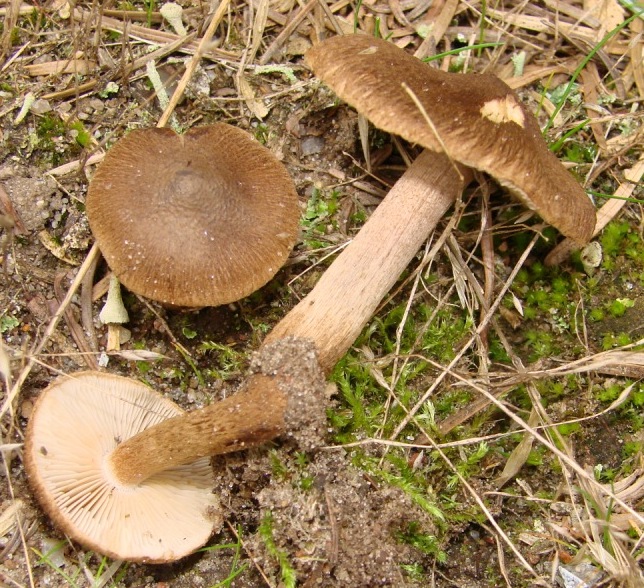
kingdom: Fungi
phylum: Basidiomycota
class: Agaricomycetes
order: Agaricales
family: Inocybaceae
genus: Inocybe
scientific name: Inocybe soluta
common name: lysbladet trævlhat
